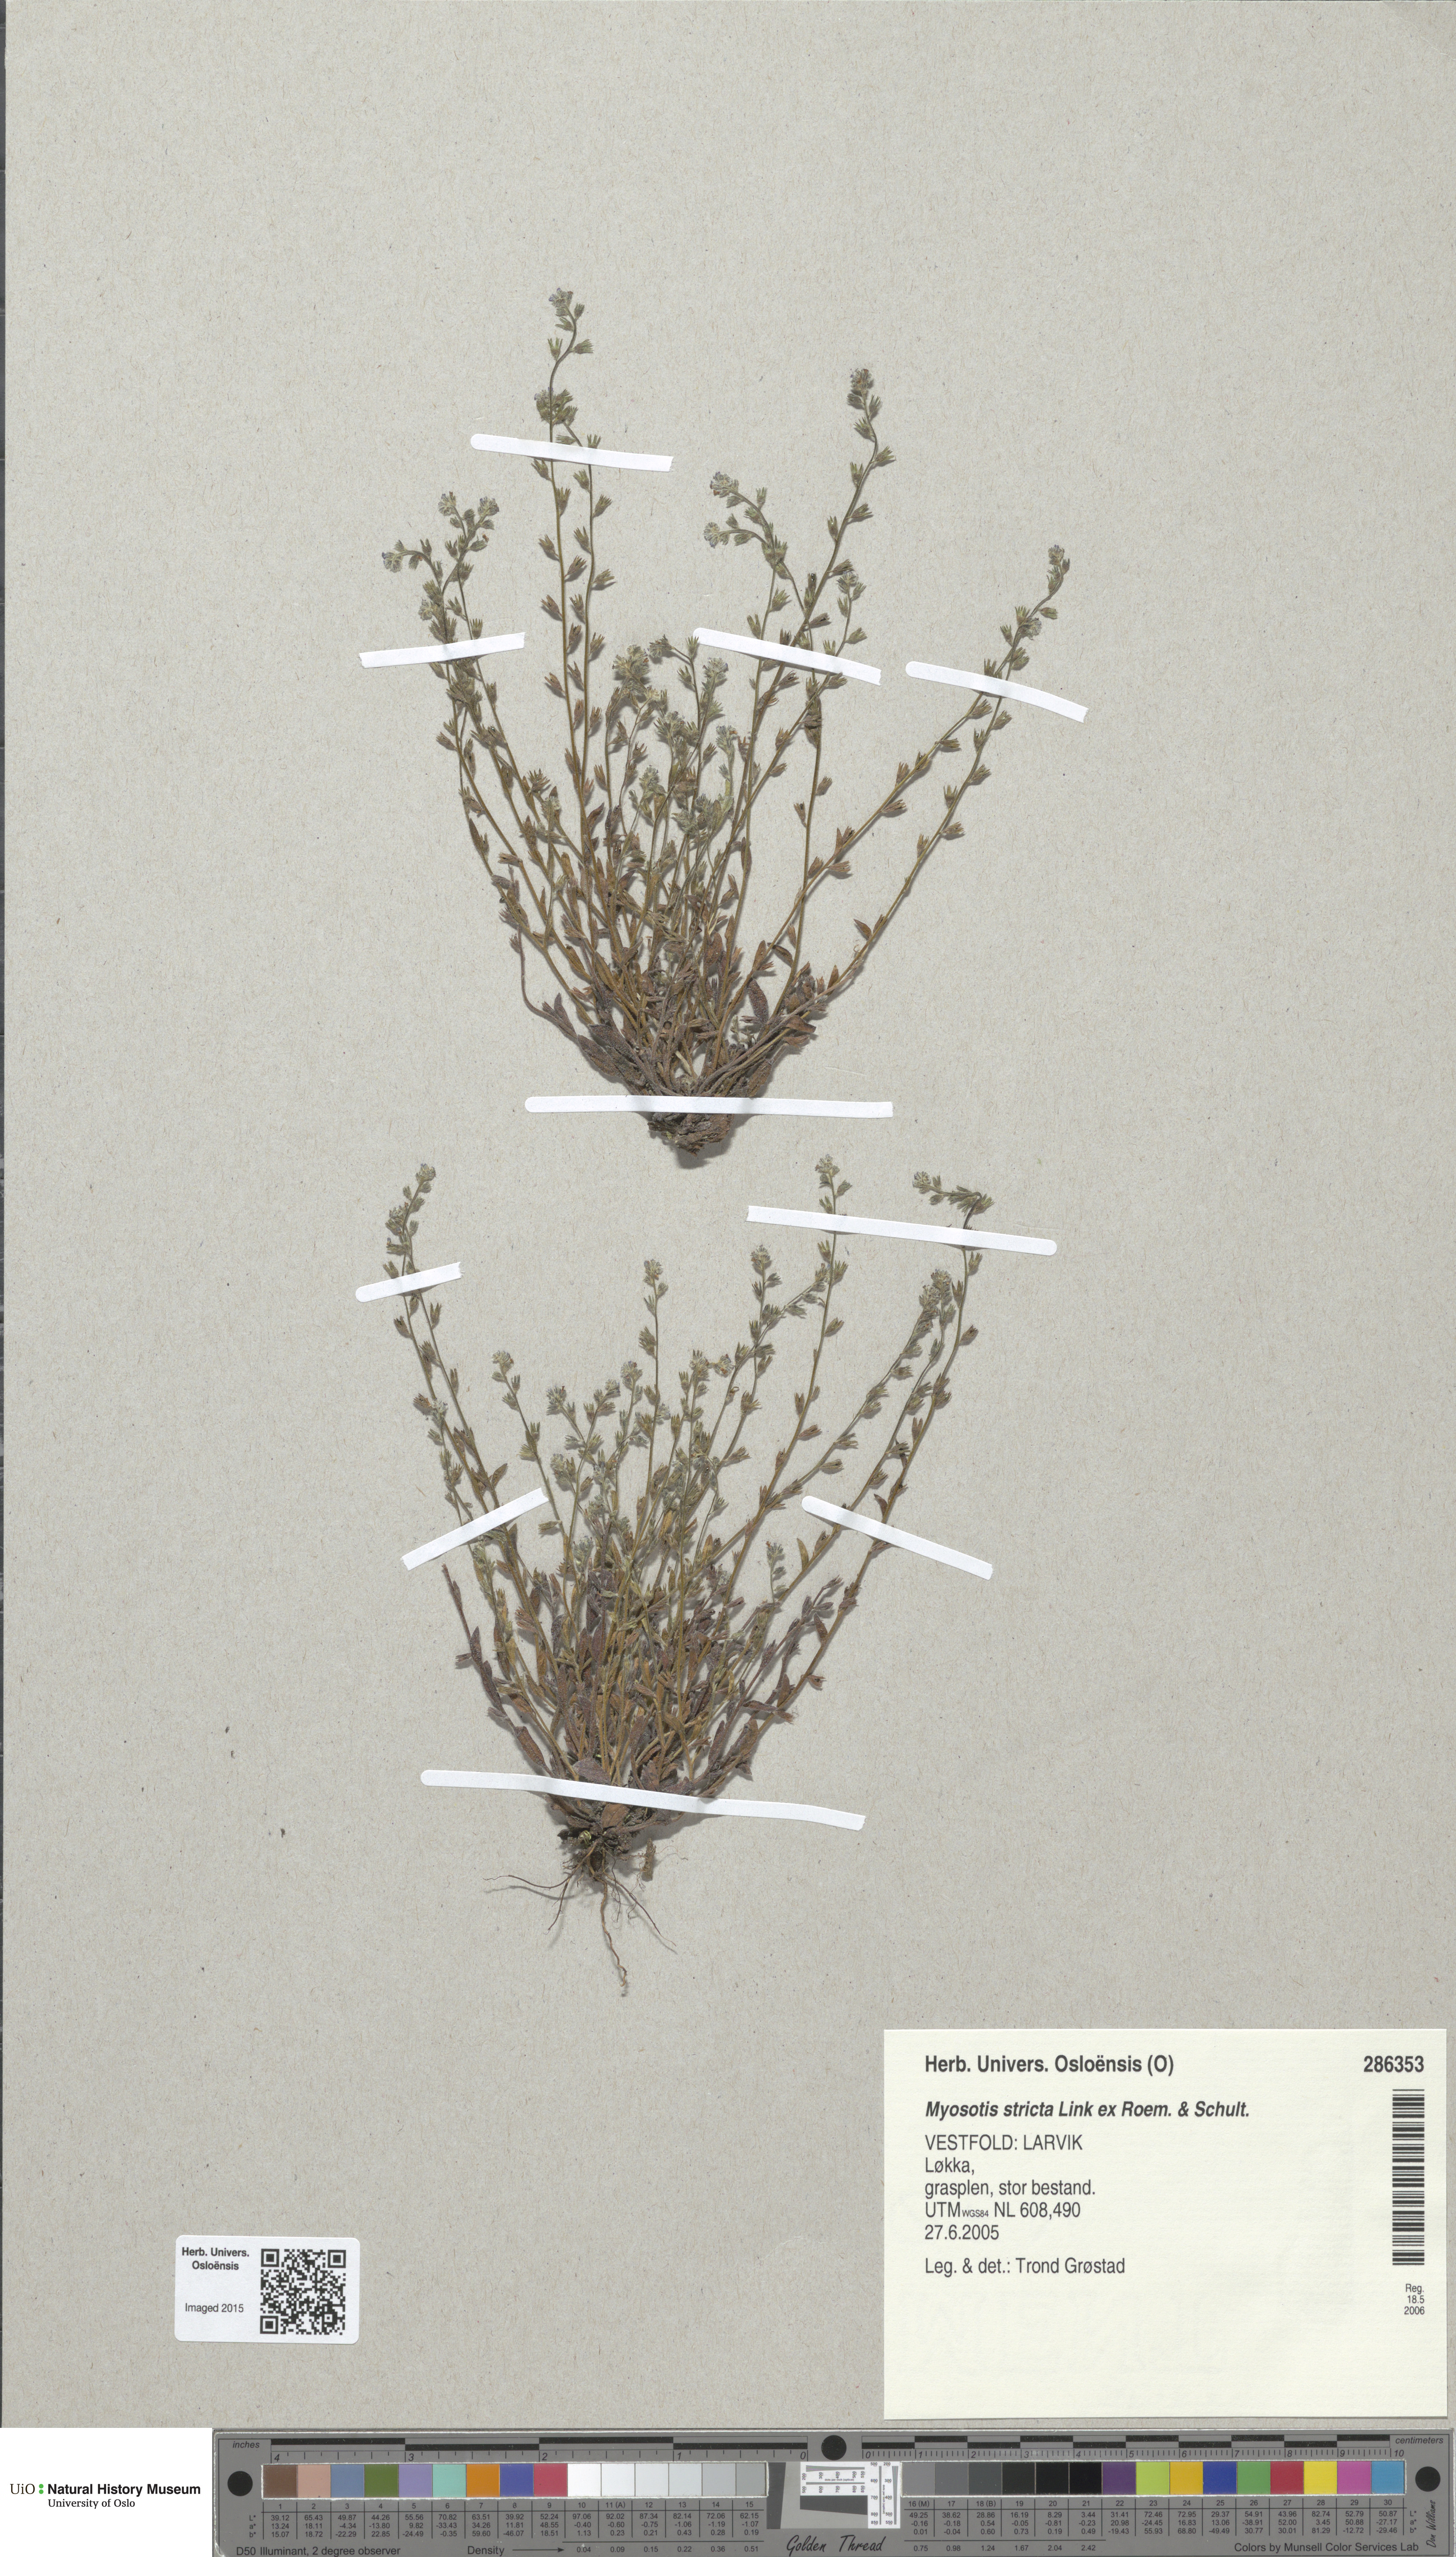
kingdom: Plantae
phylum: Tracheophyta
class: Magnoliopsida
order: Boraginales
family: Boraginaceae
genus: Myosotis
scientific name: Myosotis stricta
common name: Strict forget-me-not
